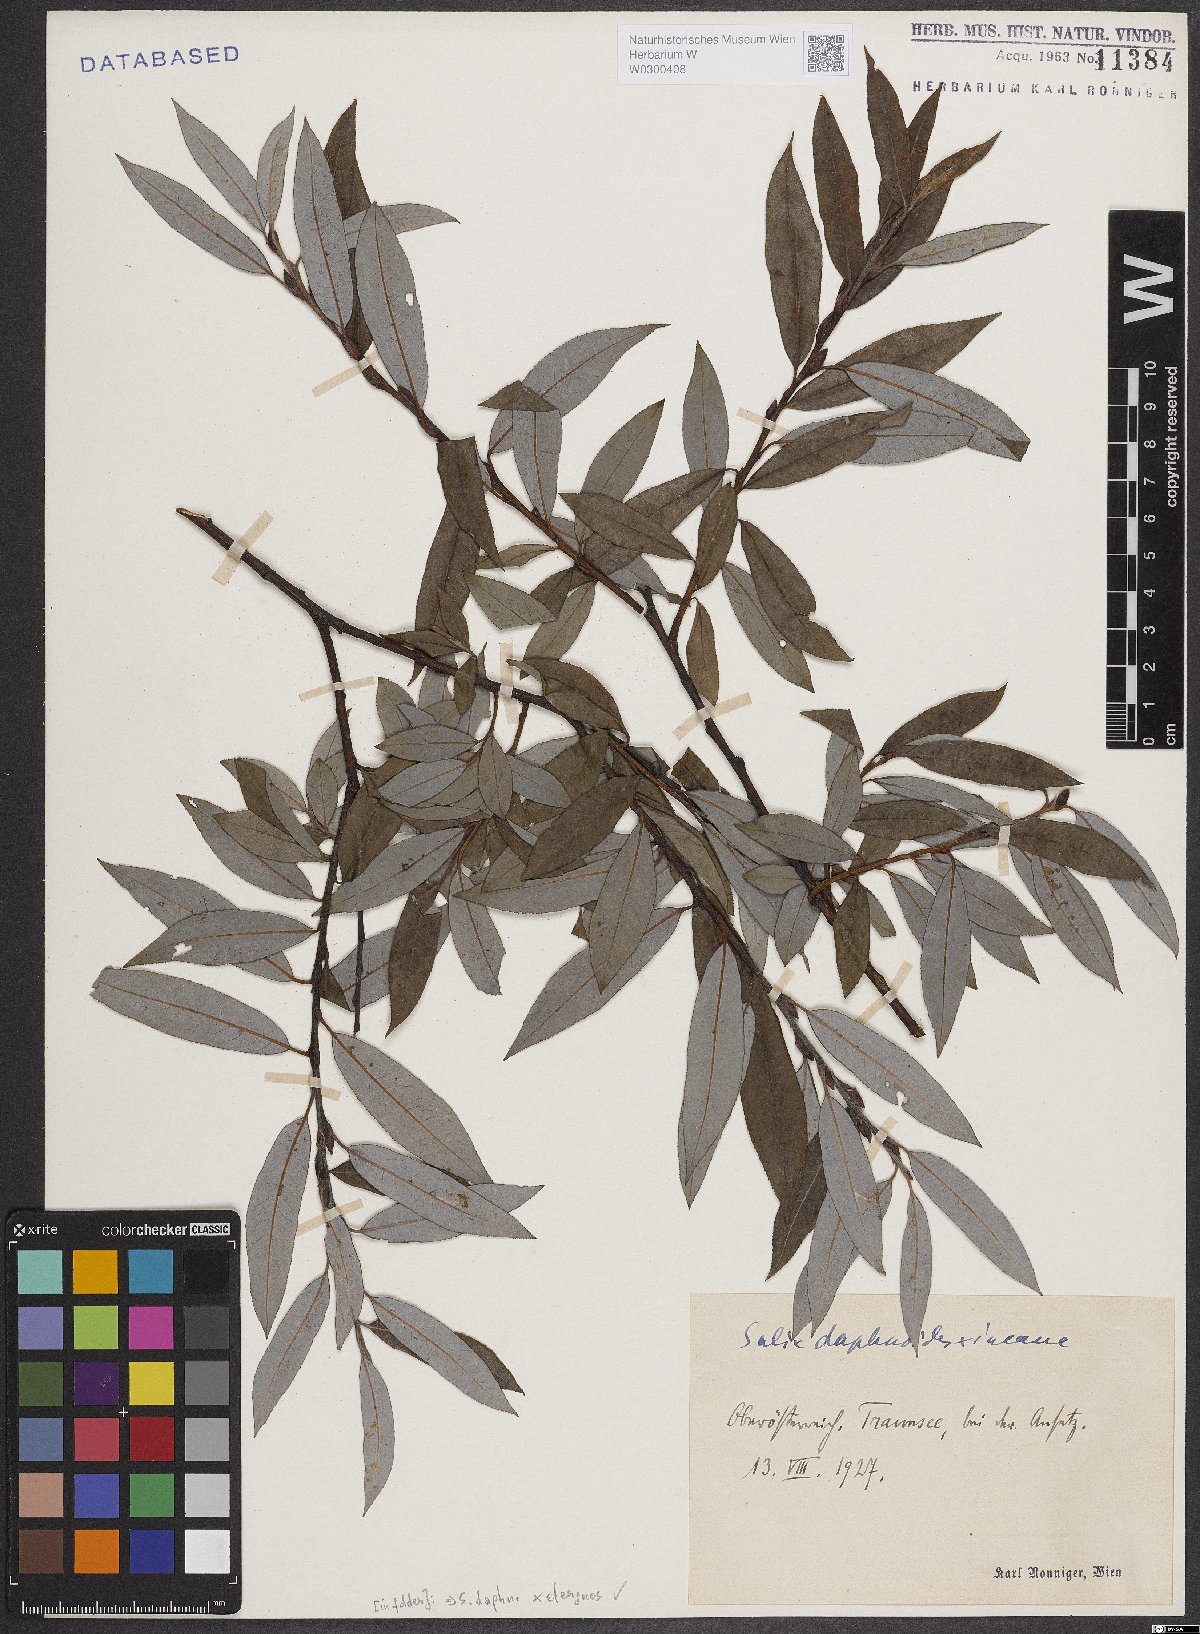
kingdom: Plantae
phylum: Tracheophyta
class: Magnoliopsida
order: Malpighiales
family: Salicaceae
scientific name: Salicaceae
